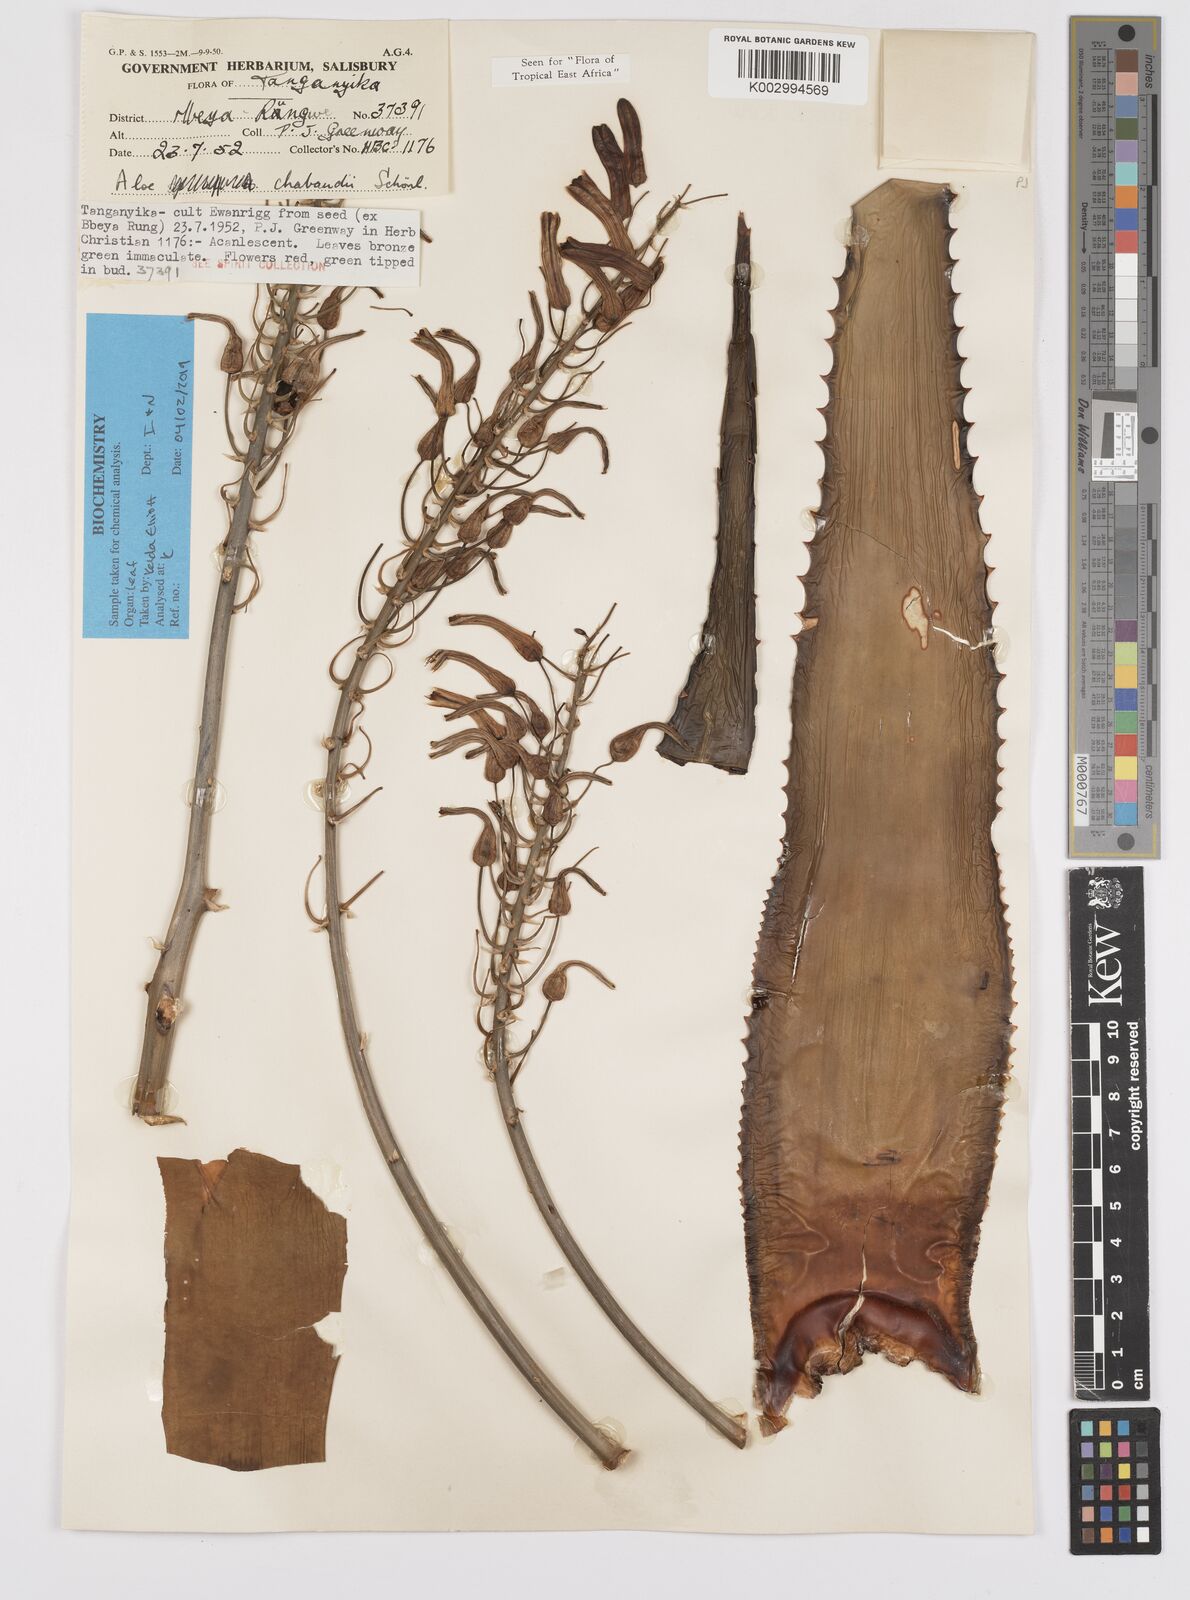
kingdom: Plantae
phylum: Tracheophyta
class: Liliopsida
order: Asparagales
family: Asphodelaceae
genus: Aloe
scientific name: Aloe chabaudii
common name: Chabaud's aloe
